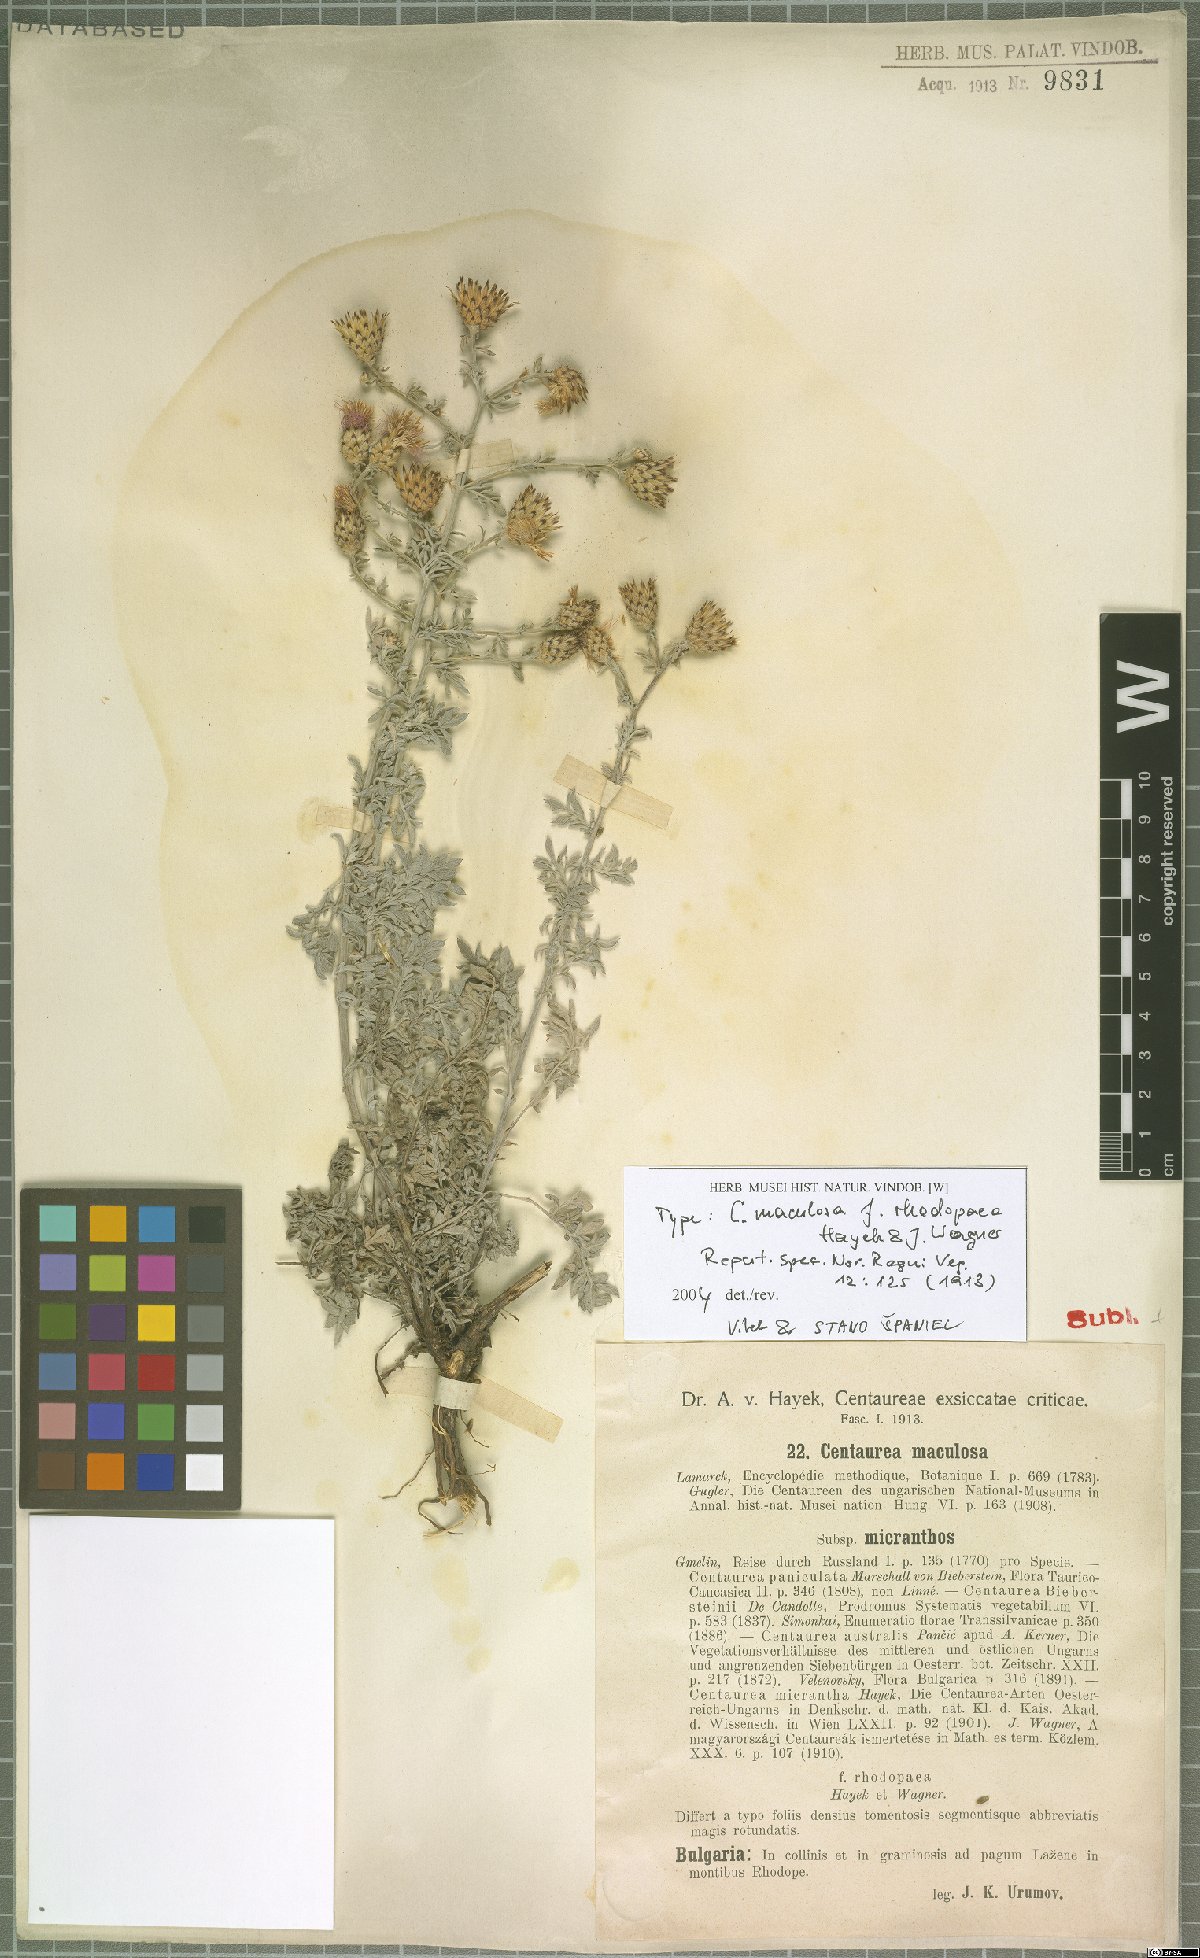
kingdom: Plantae
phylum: Tracheophyta
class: Magnoliopsida
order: Asterales
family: Asteraceae
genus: Centaurea
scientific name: Centaurea australis
